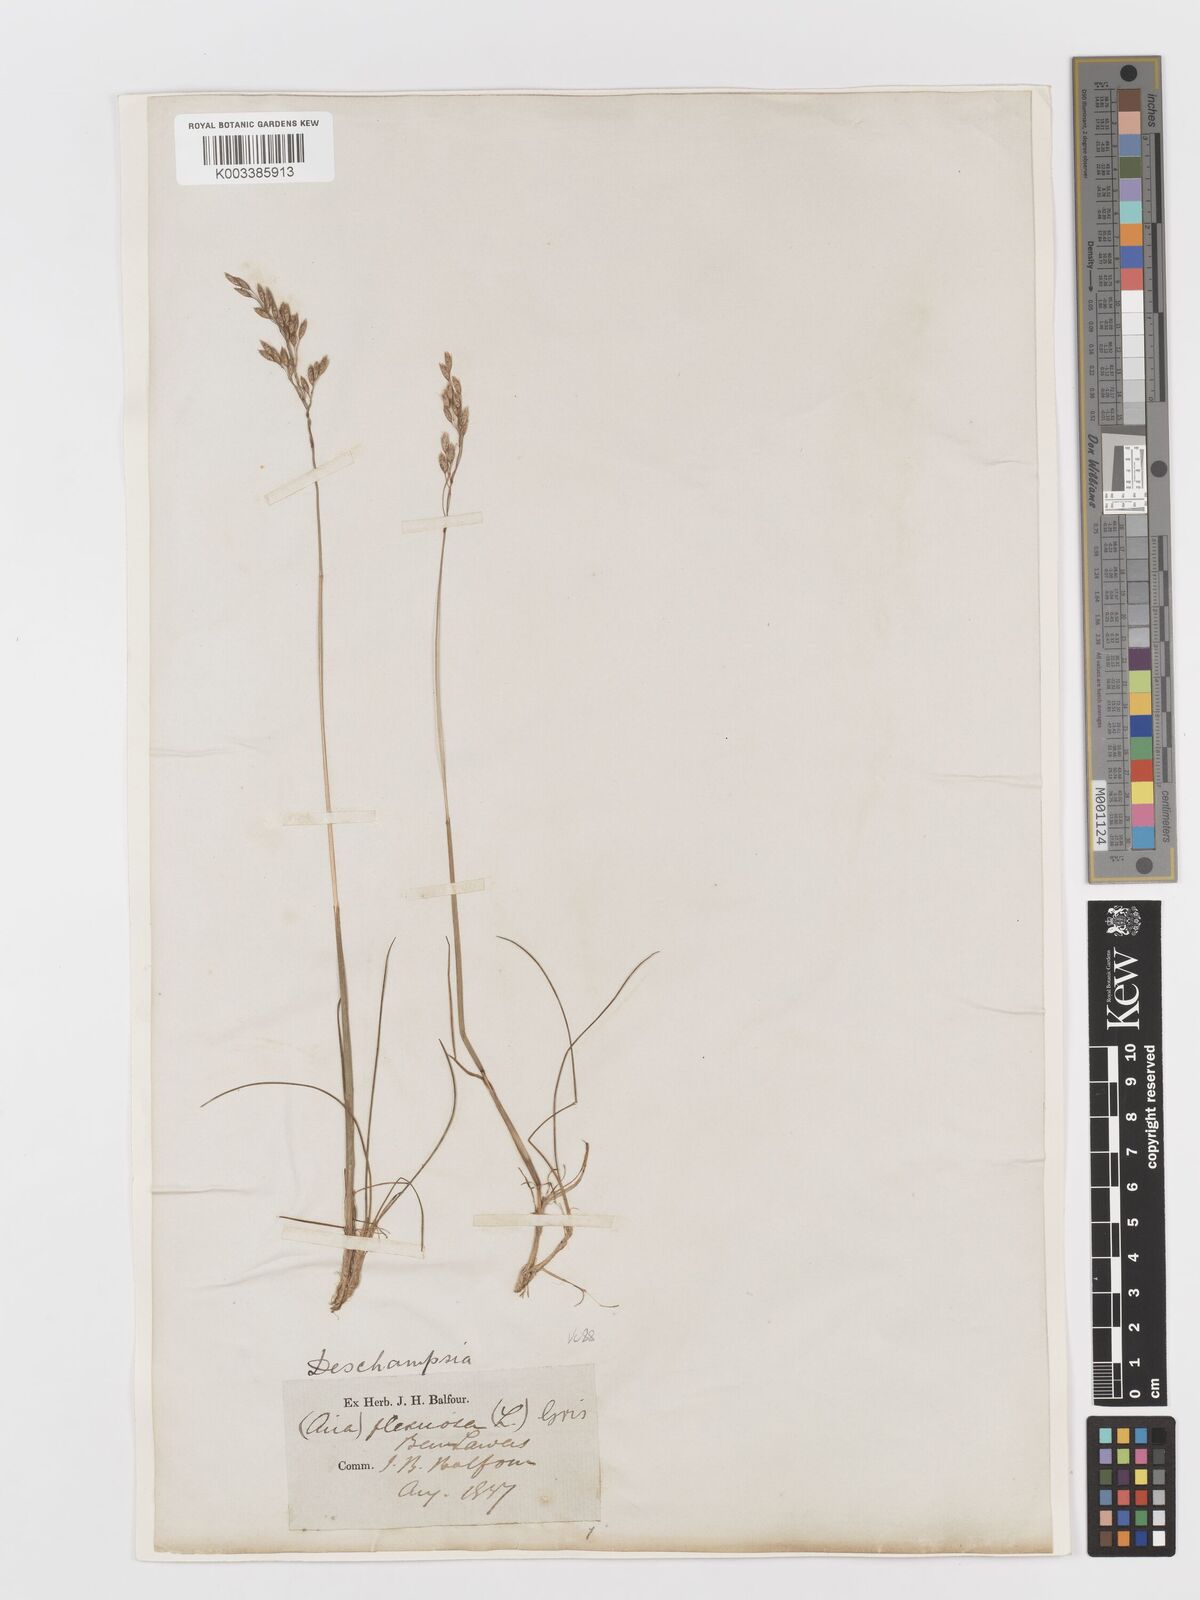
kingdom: Plantae
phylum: Tracheophyta
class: Liliopsida
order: Poales
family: Poaceae
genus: Avenella
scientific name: Avenella flexuosa
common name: Wavy hairgrass
